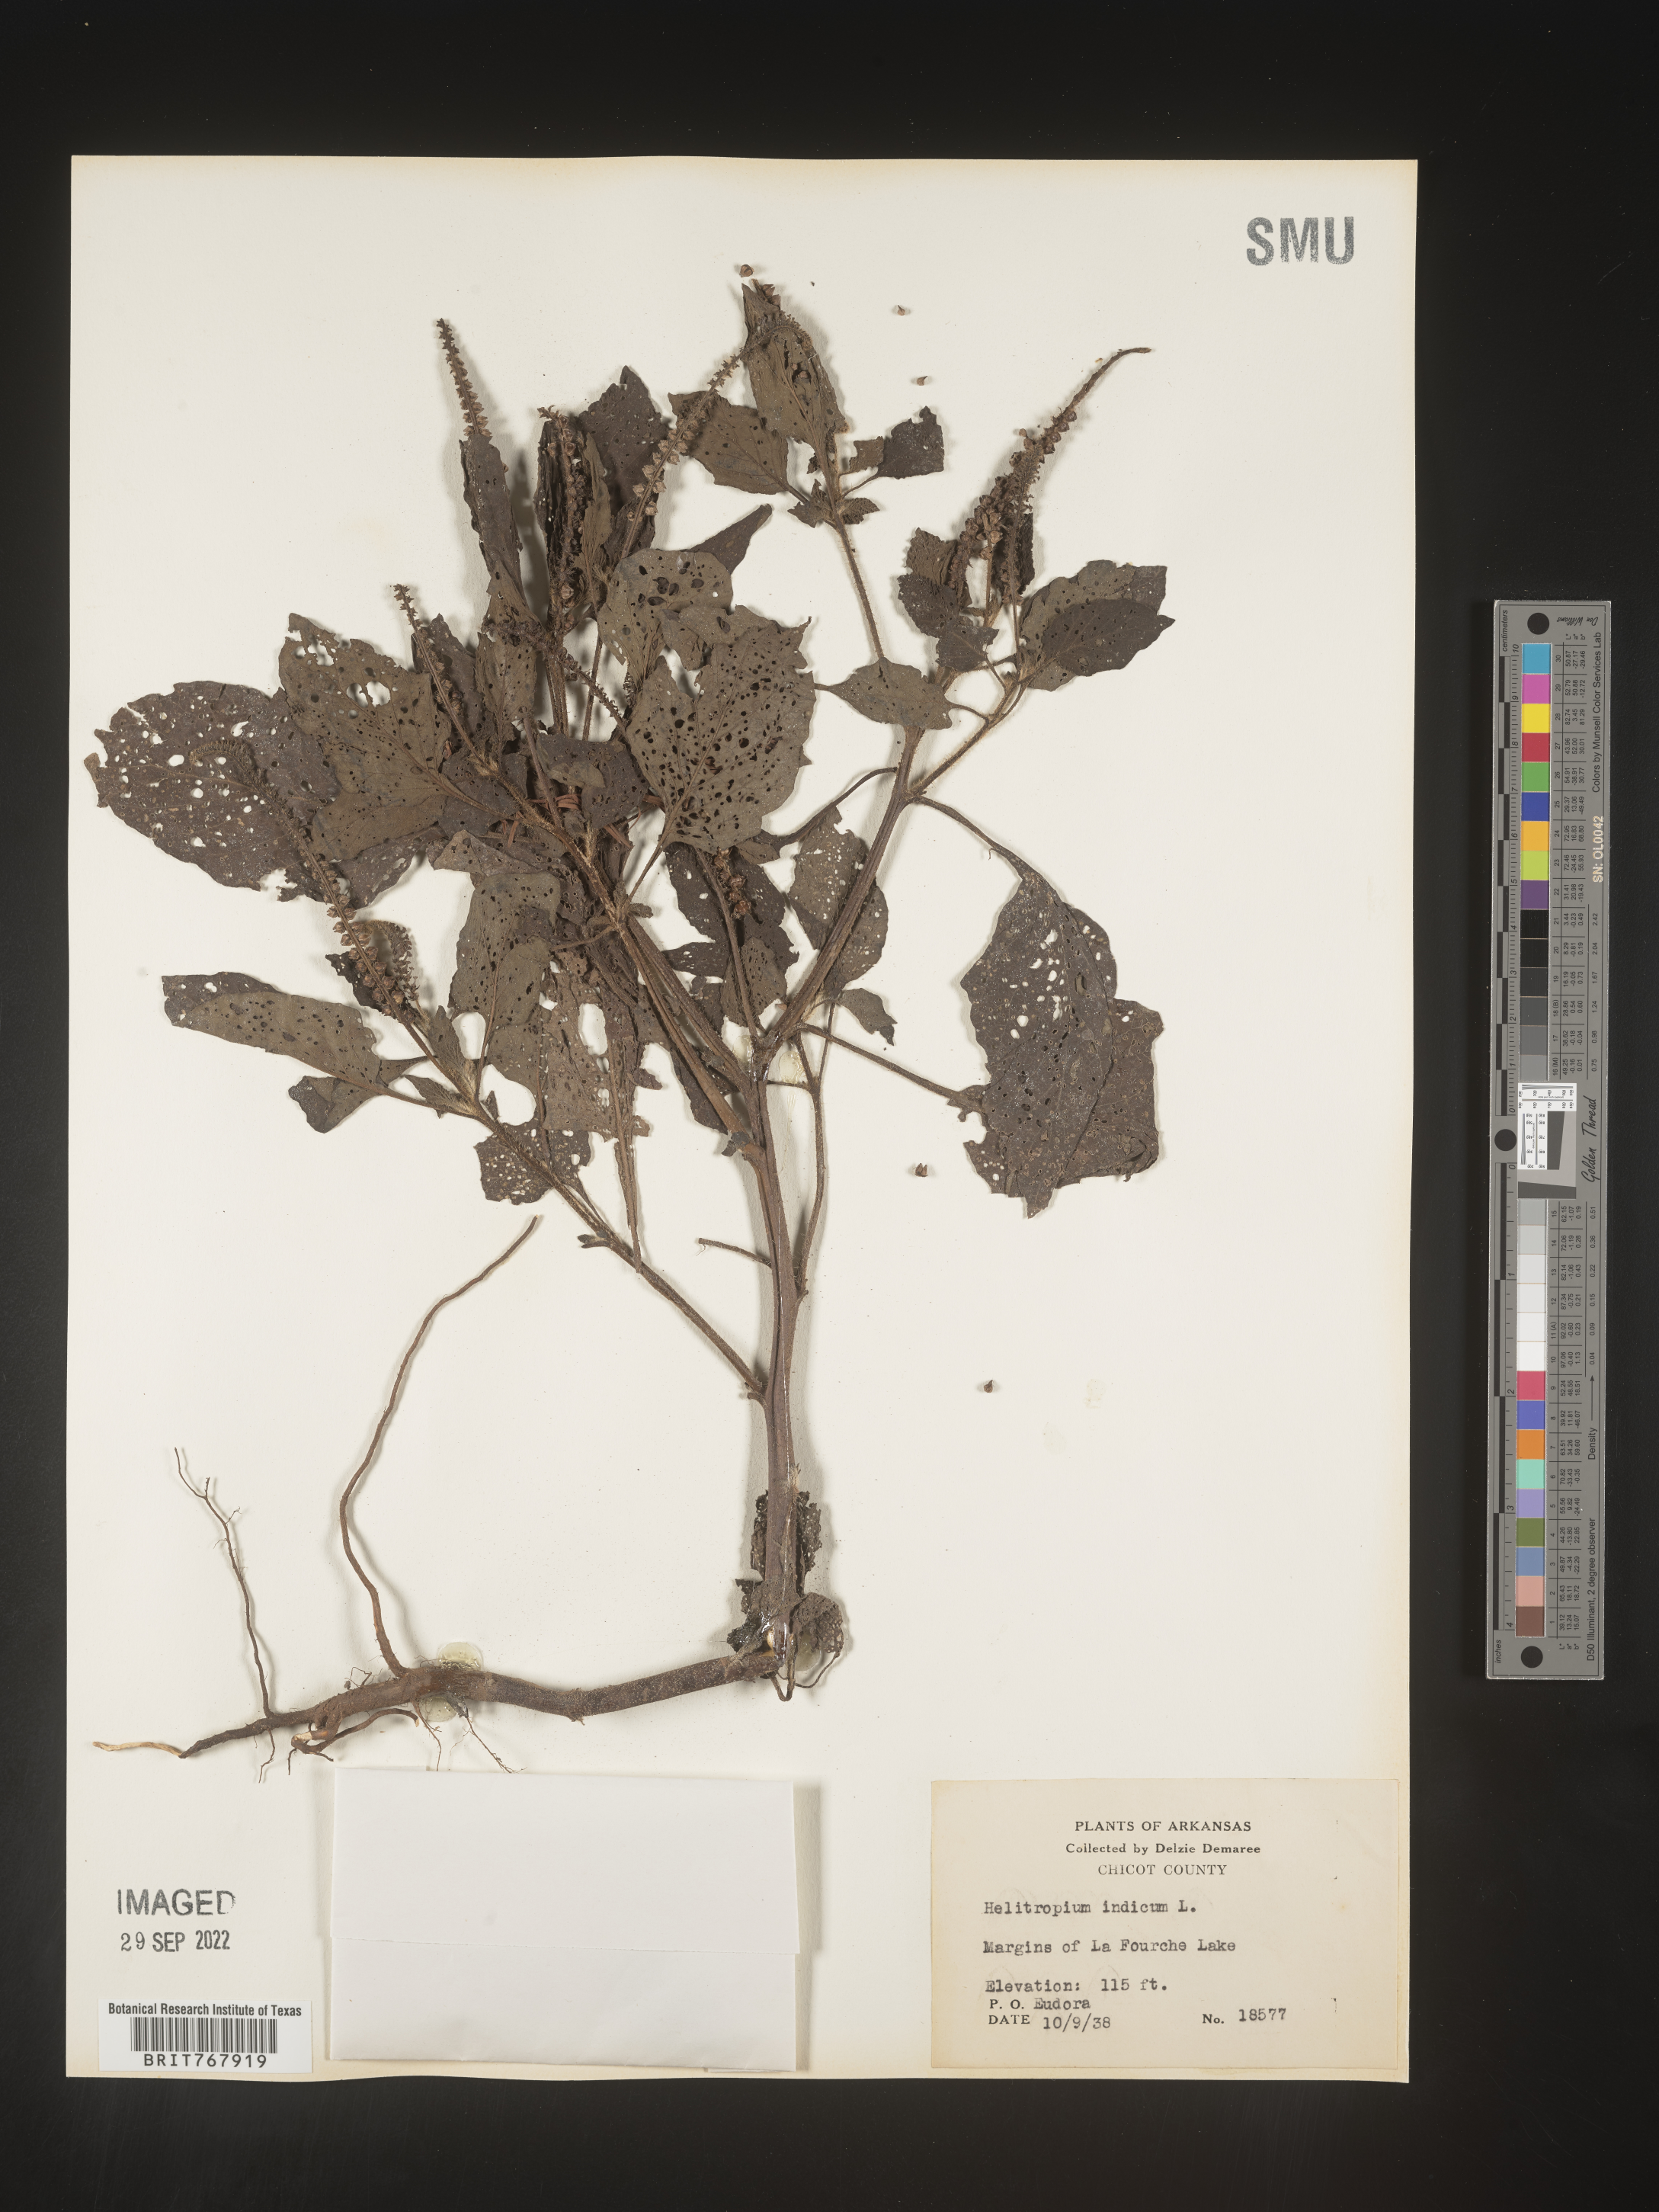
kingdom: Plantae
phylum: Tracheophyta
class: Magnoliopsida
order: Boraginales
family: Heliotropiaceae
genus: Heliotropium
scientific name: Heliotropium indicum
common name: Indian heliotrope
